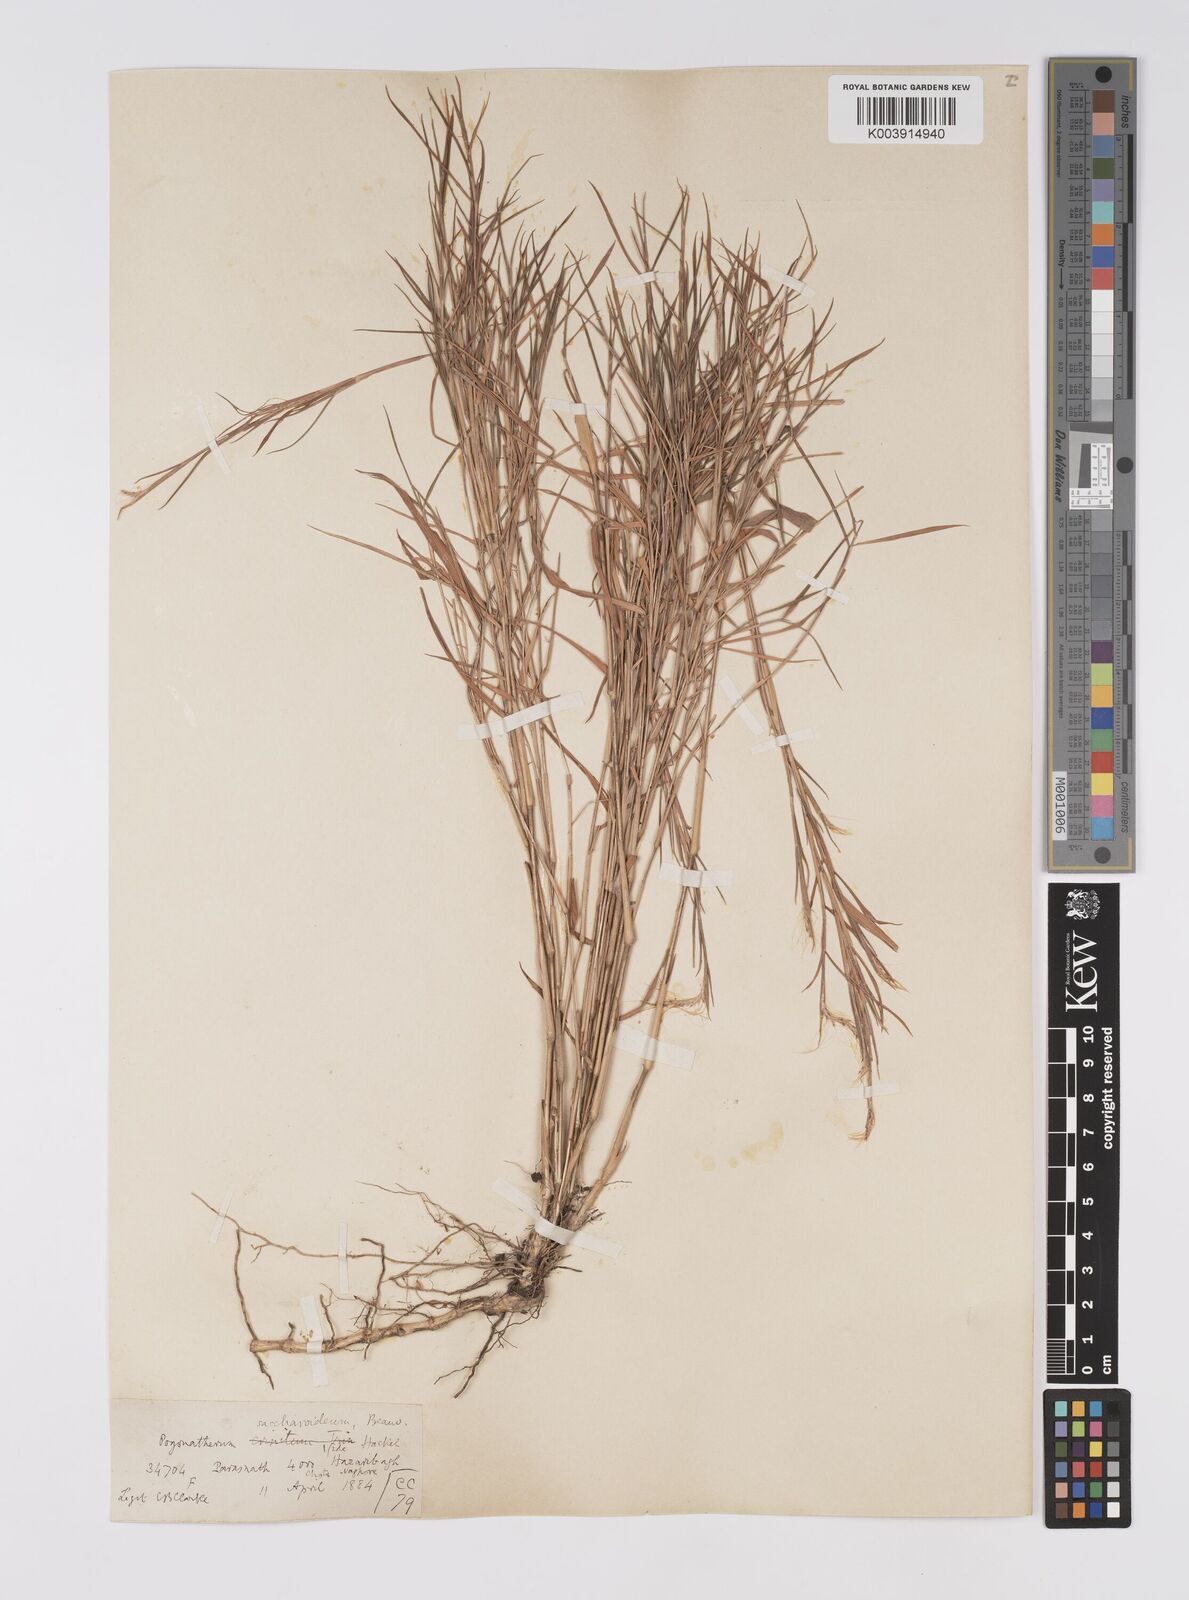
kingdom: Plantae
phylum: Tracheophyta
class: Liliopsida
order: Poales
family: Poaceae
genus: Pogonatherum
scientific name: Pogonatherum paniceum
